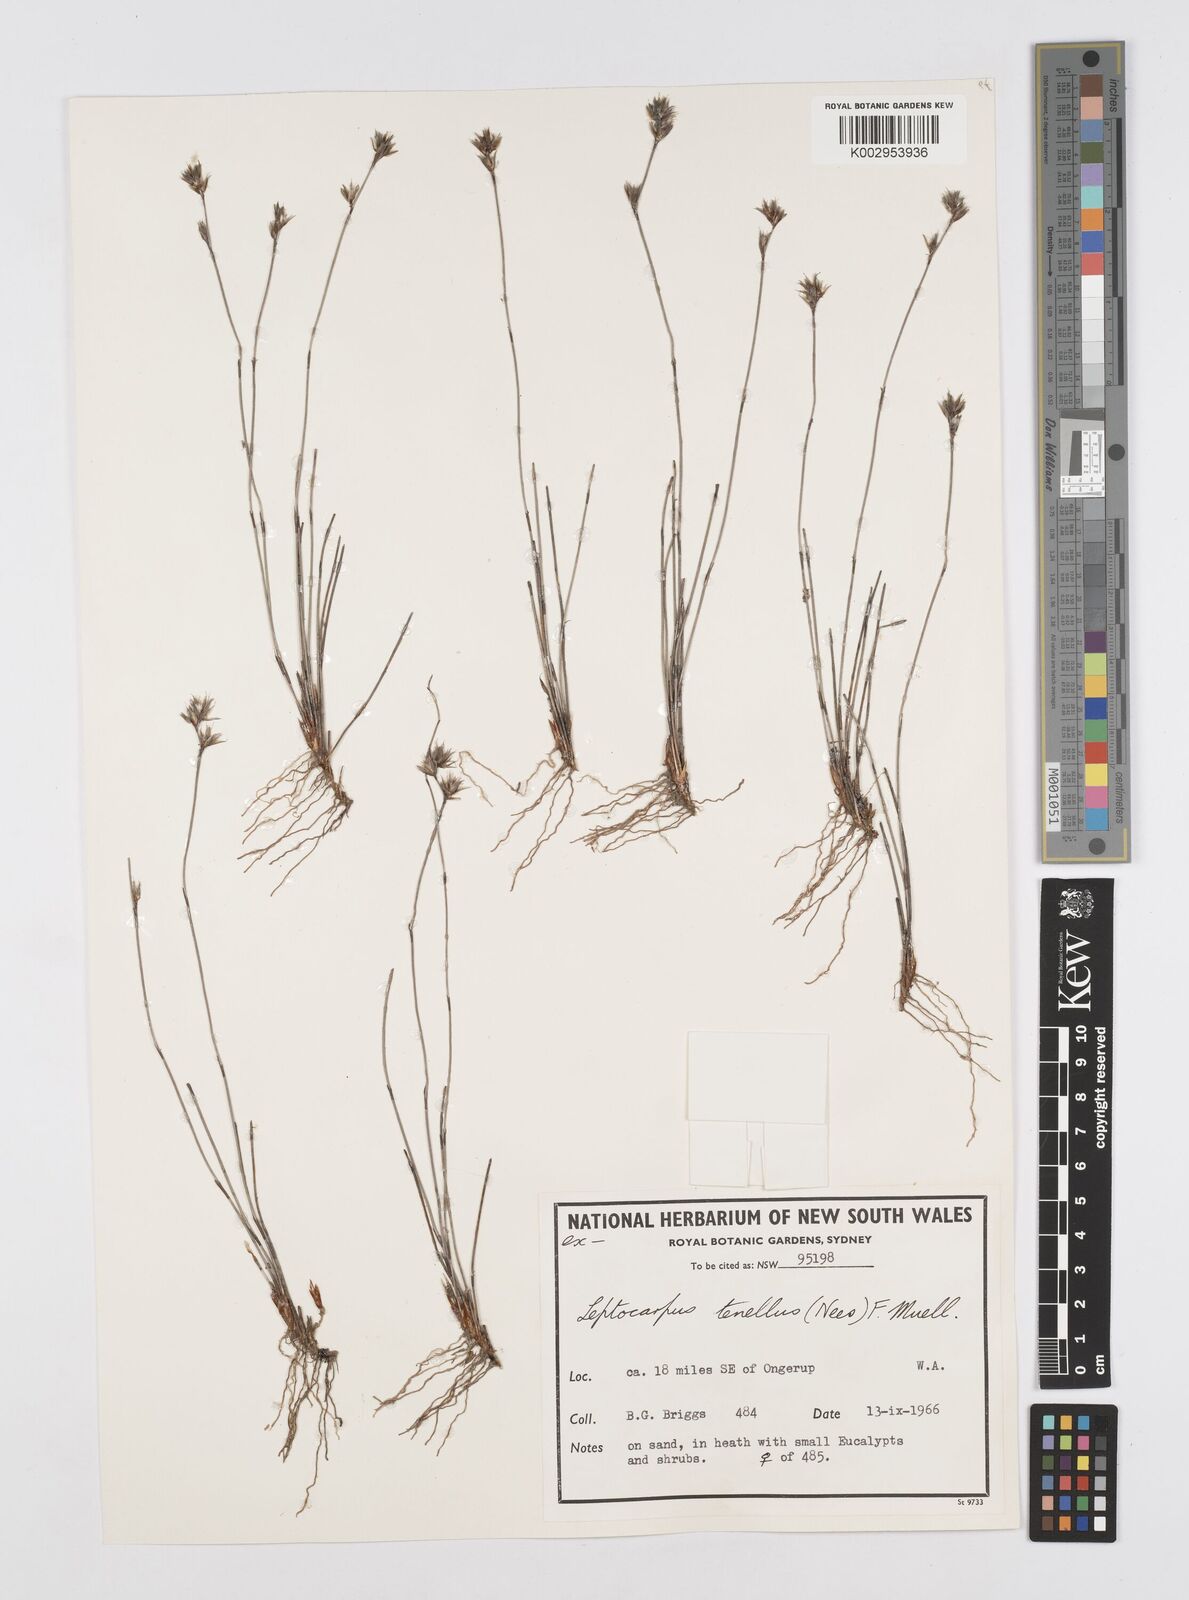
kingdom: Plantae
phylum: Tracheophyta
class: Liliopsida
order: Poales
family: Restionaceae
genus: Chaetanthus
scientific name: Chaetanthus tenellus
